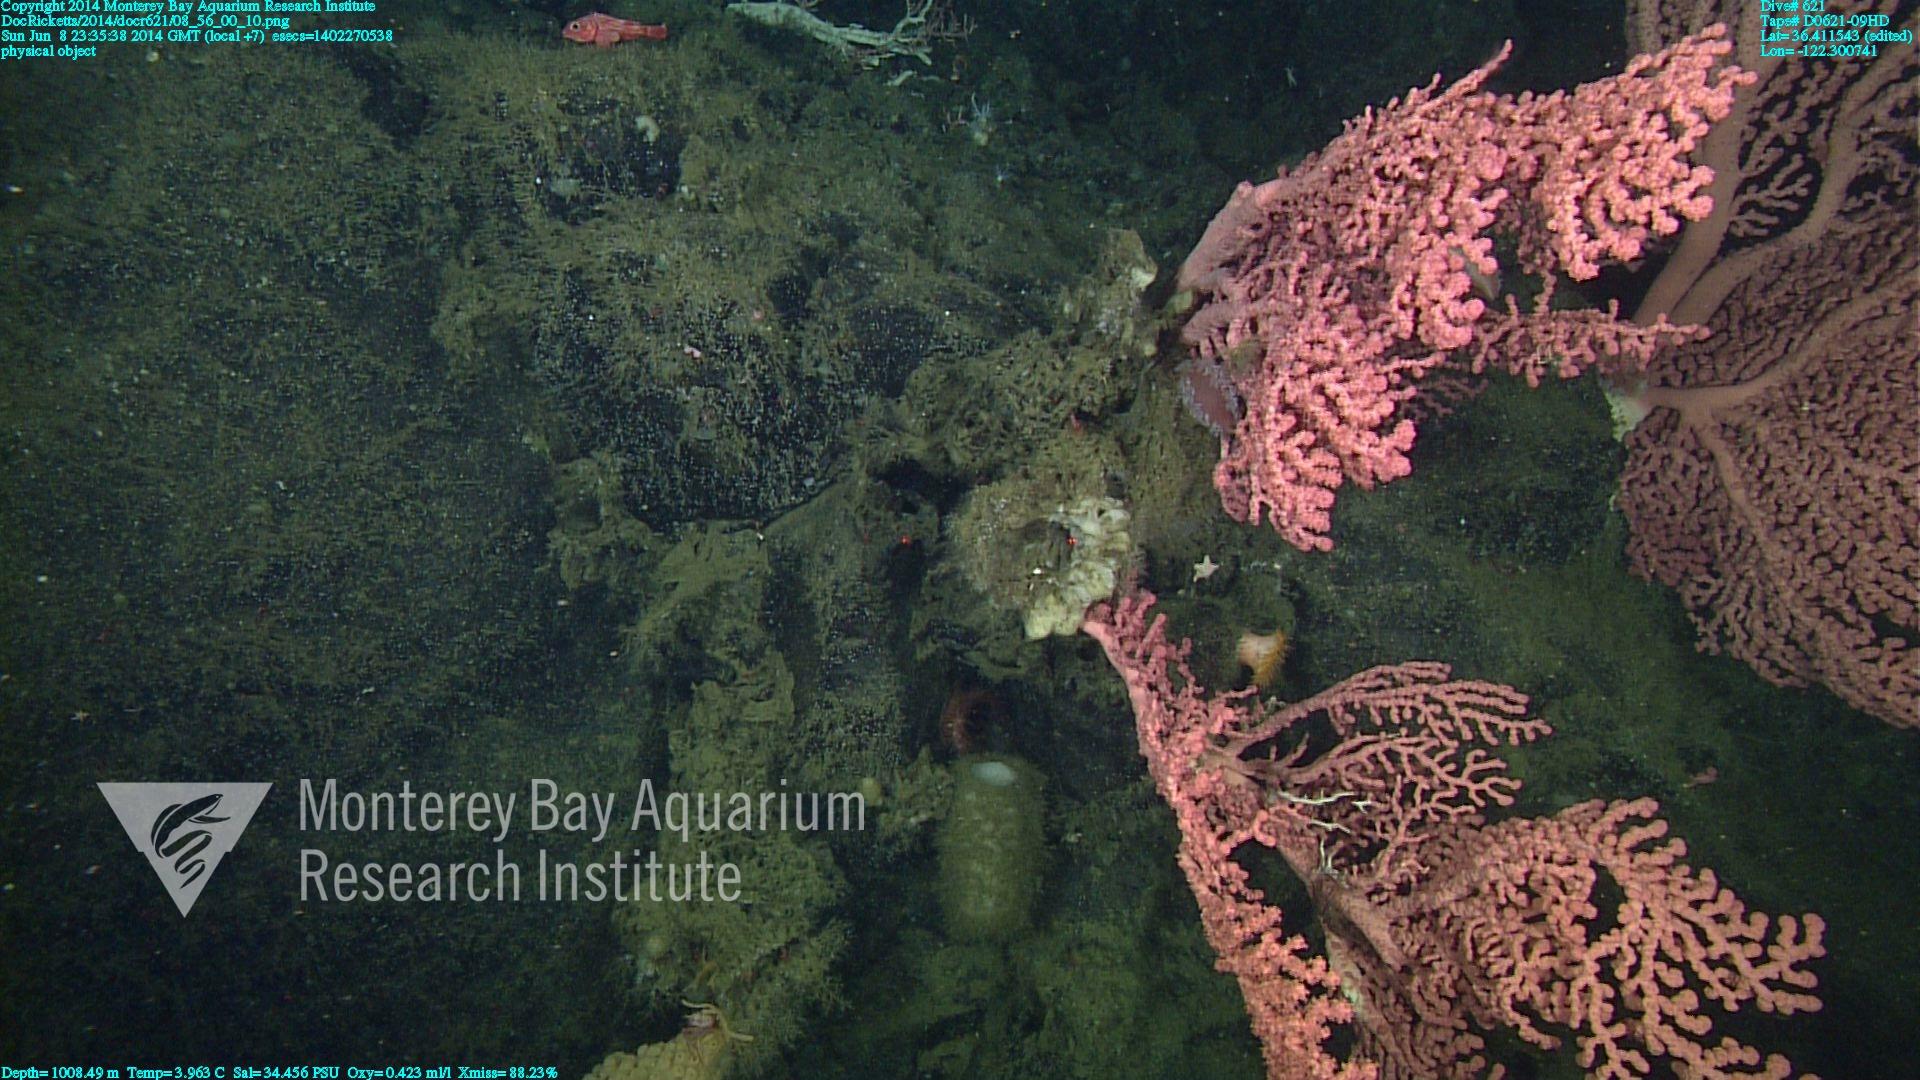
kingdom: Animalia
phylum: Cnidaria
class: Anthozoa
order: Scleralcyonacea
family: Coralliidae
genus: Paragorgia
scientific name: Paragorgia arborea
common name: Bubble gum coral
